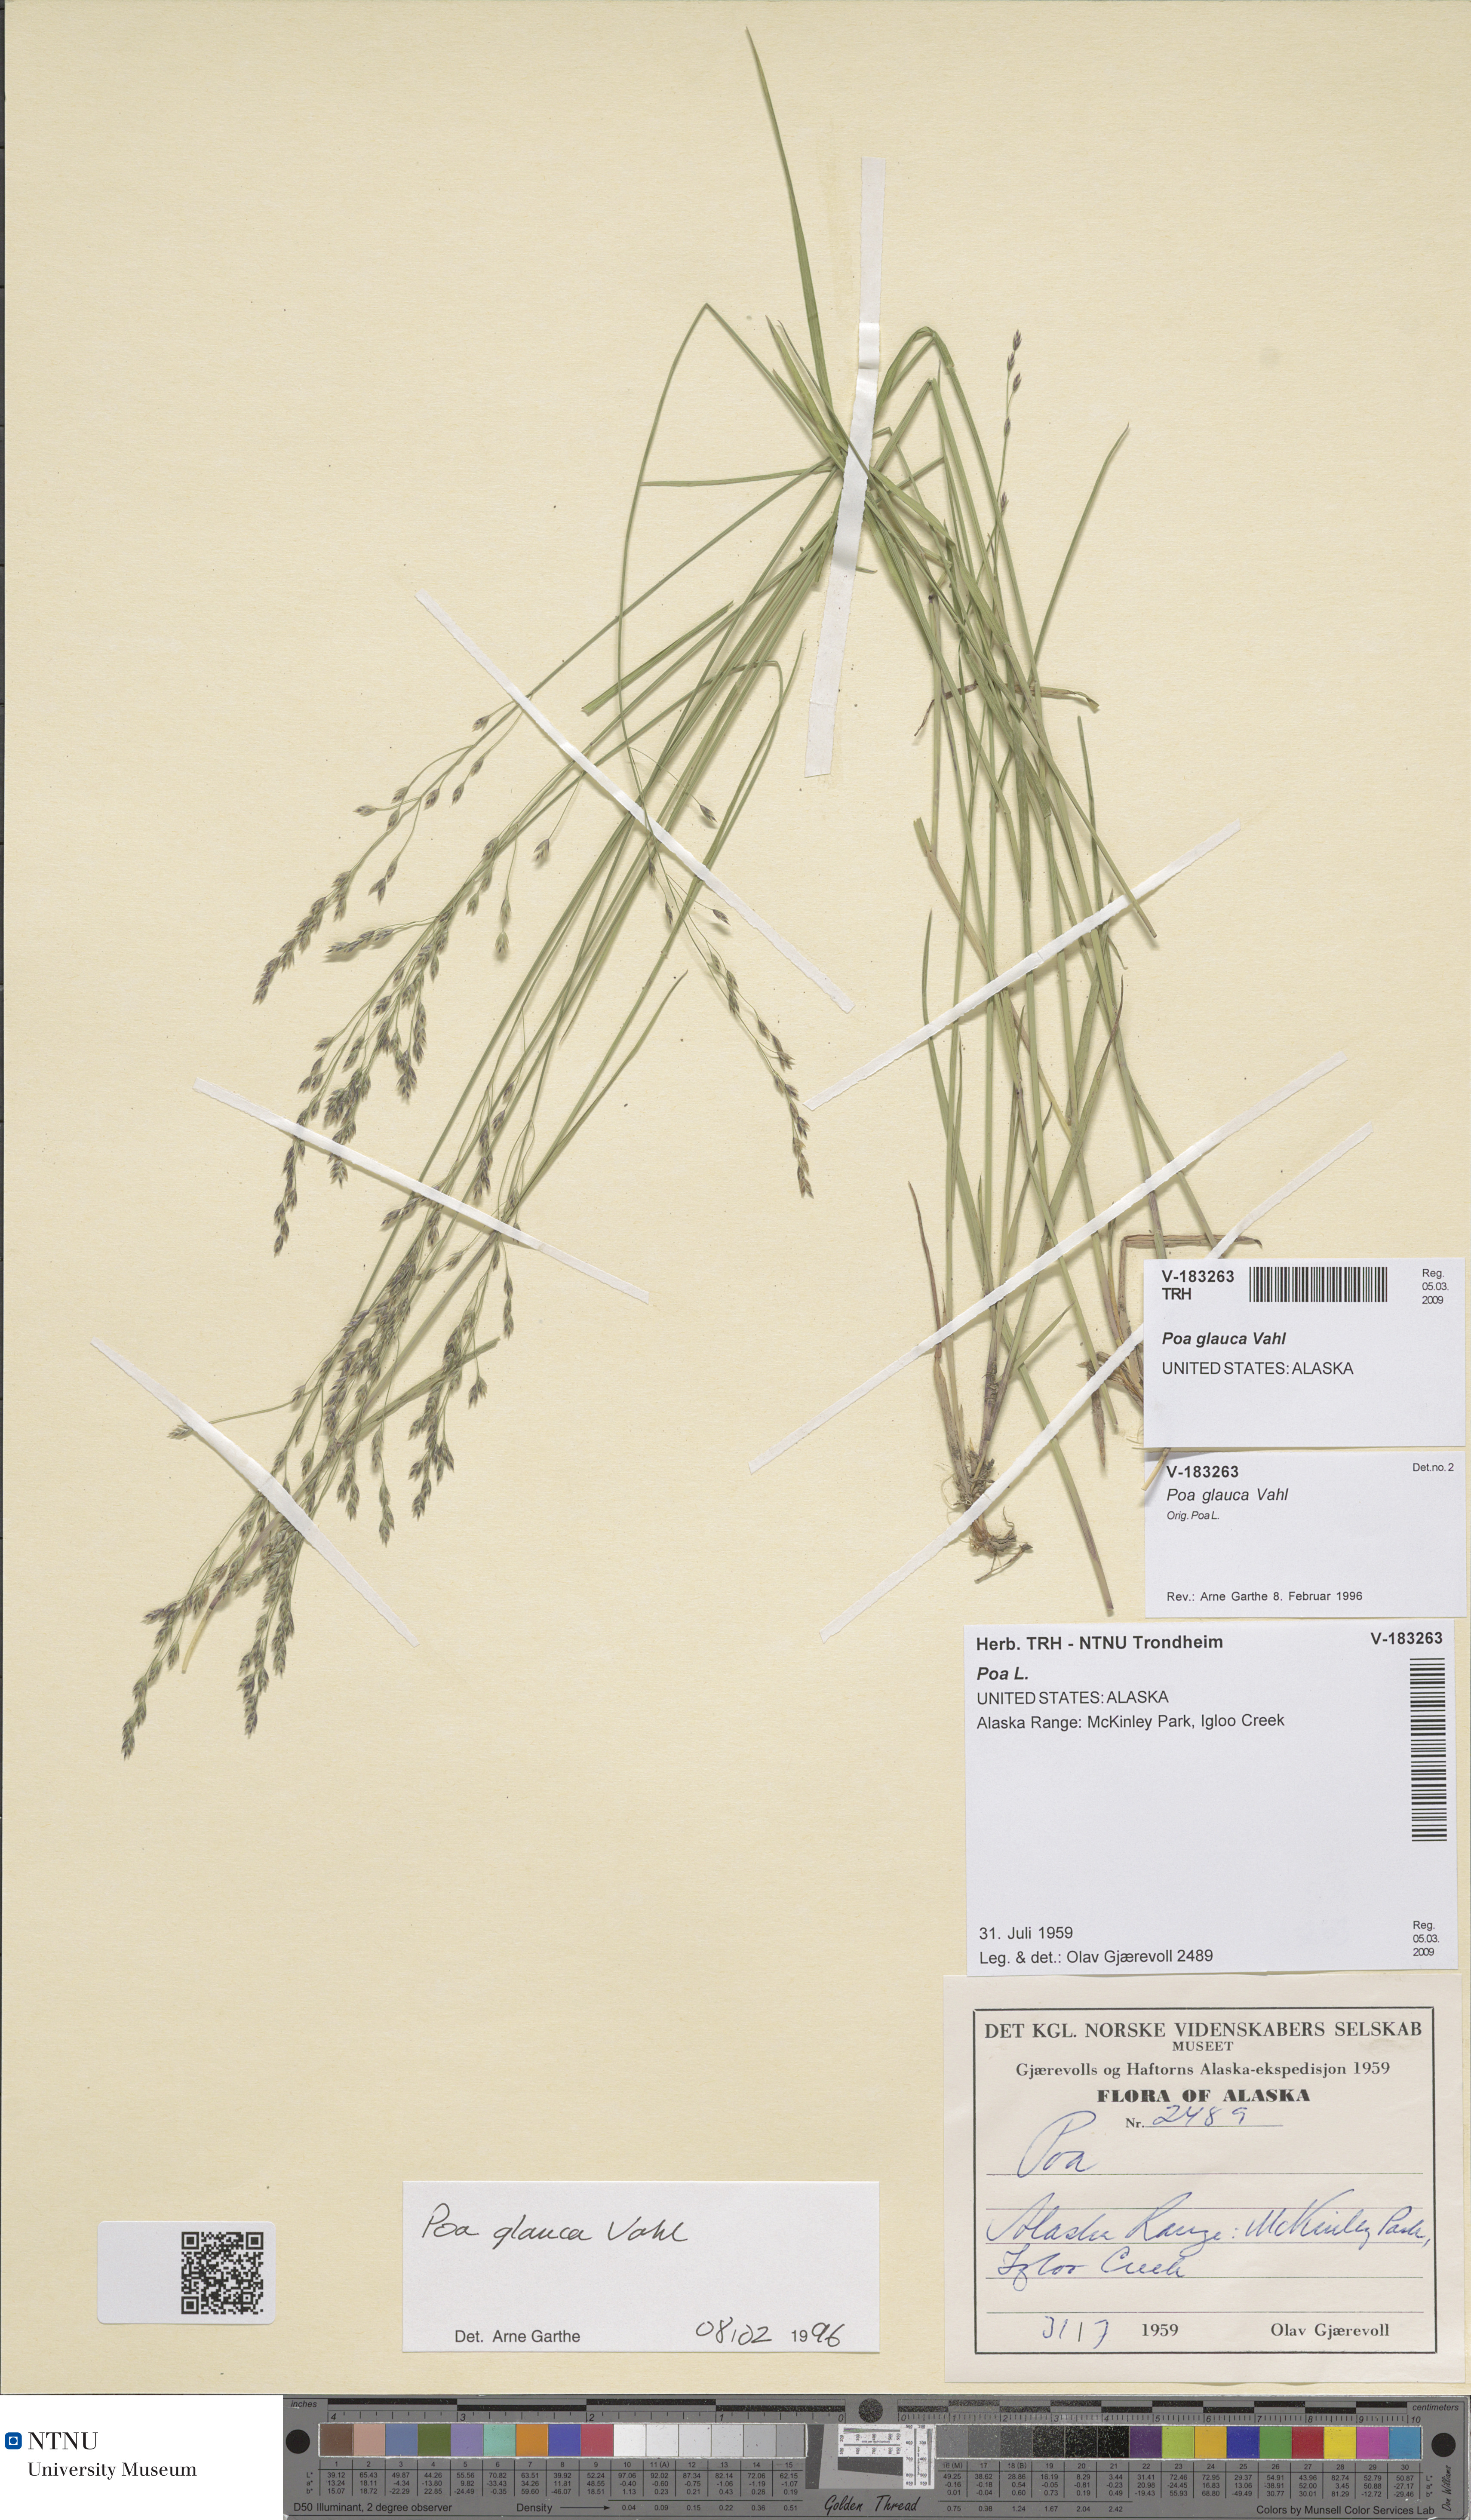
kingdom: Plantae
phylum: Tracheophyta
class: Liliopsida
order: Poales
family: Poaceae
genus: Poa
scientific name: Poa glauca
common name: Glaucous bluegrass
